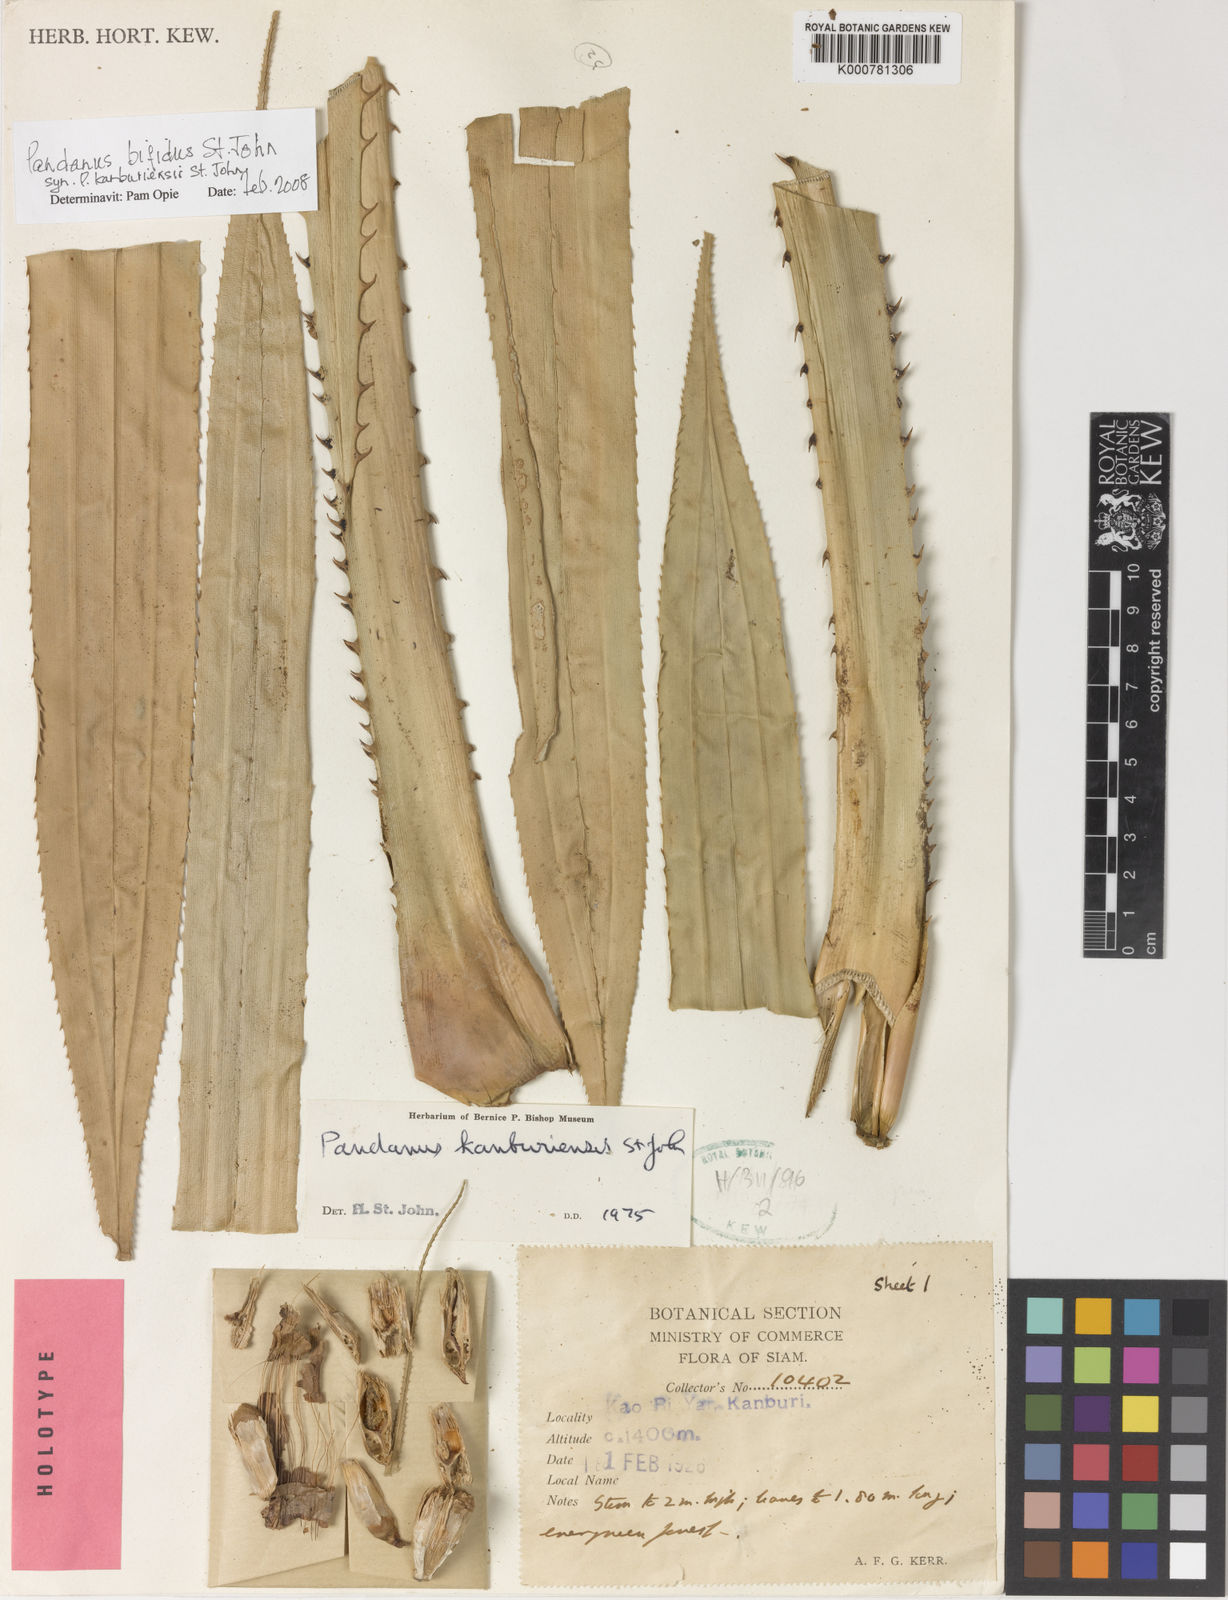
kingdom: Plantae
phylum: Tracheophyta
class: Liliopsida
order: Pandanales
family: Pandanaceae
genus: Pandanus
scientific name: Pandanus obconicus
